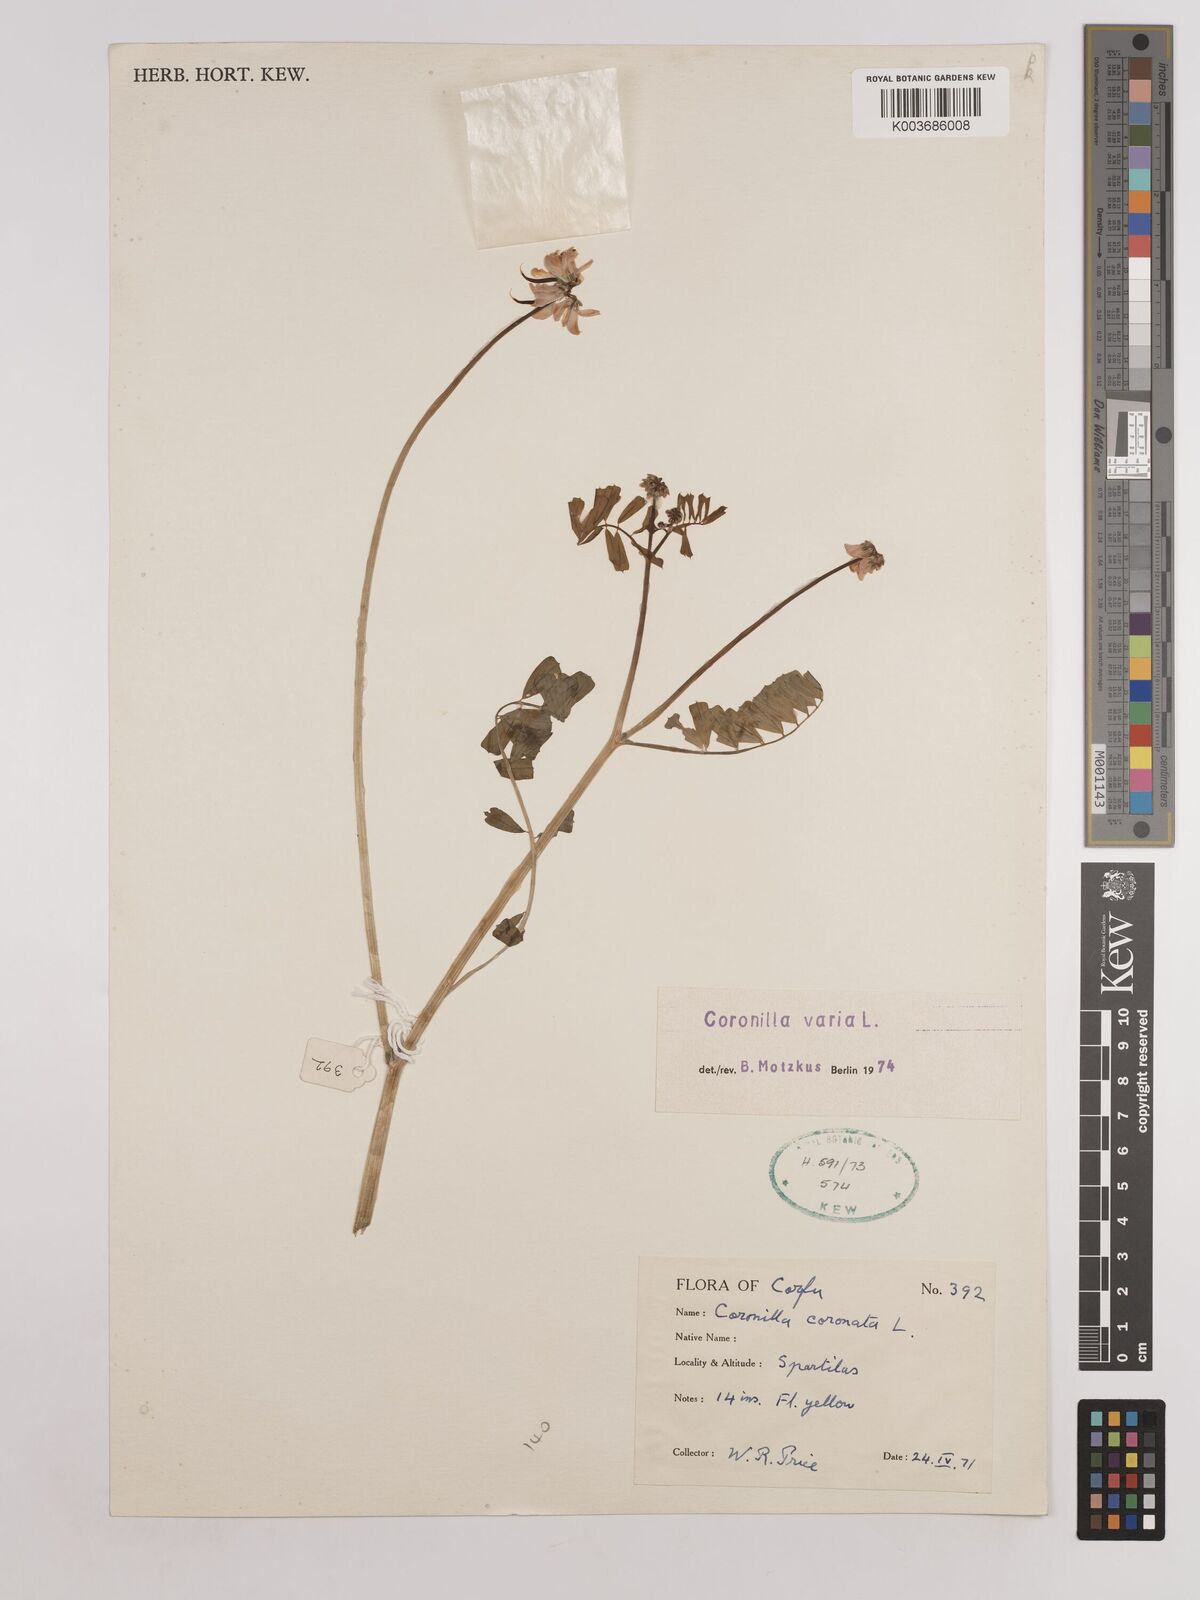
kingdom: Plantae
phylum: Tracheophyta
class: Magnoliopsida
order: Fabales
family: Fabaceae
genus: Coronilla
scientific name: Coronilla varia
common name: Crownvetch
